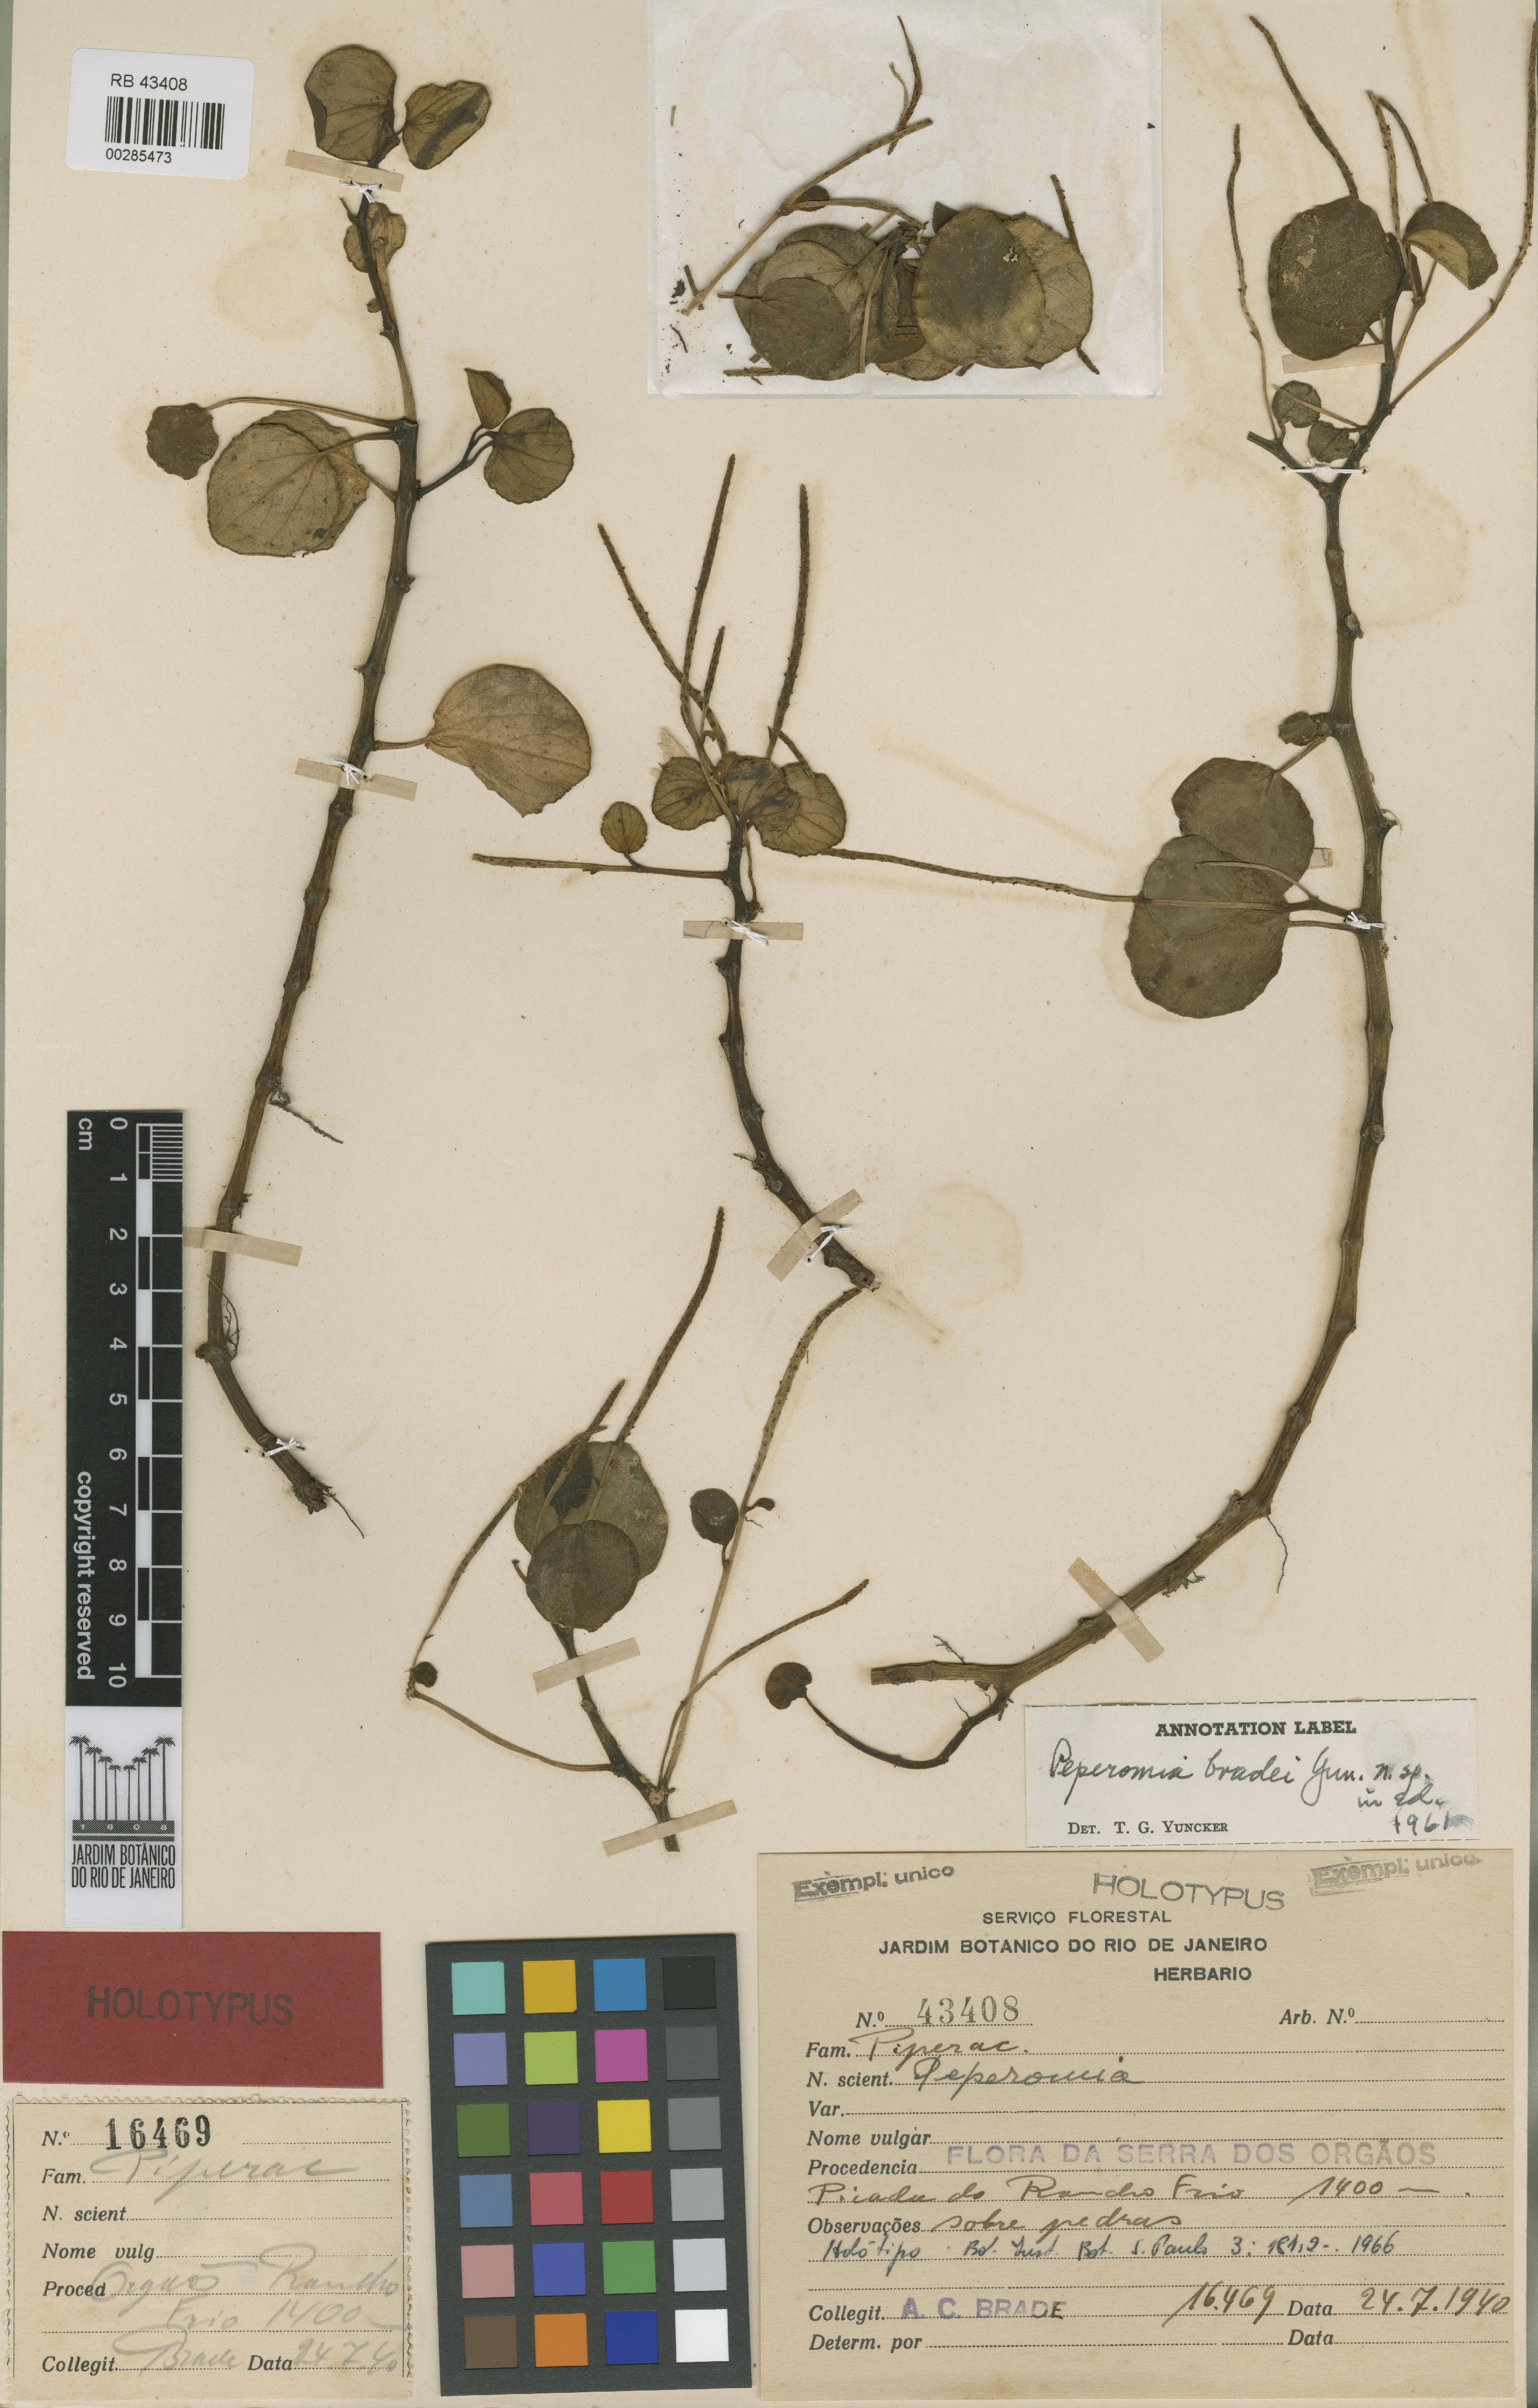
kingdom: Plantae
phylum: Tracheophyta
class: Magnoliopsida
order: Piperales
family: Piperaceae
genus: Peperomia
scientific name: Peperomia bradei
